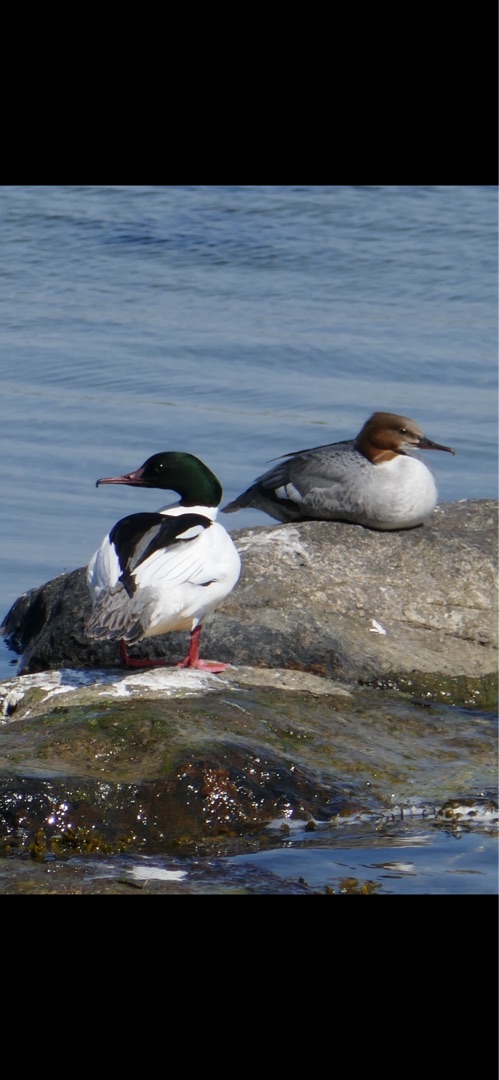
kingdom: Animalia
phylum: Chordata
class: Aves
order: Anseriformes
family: Anatidae
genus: Mergus
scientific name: Mergus merganser
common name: Stor skallesluger
